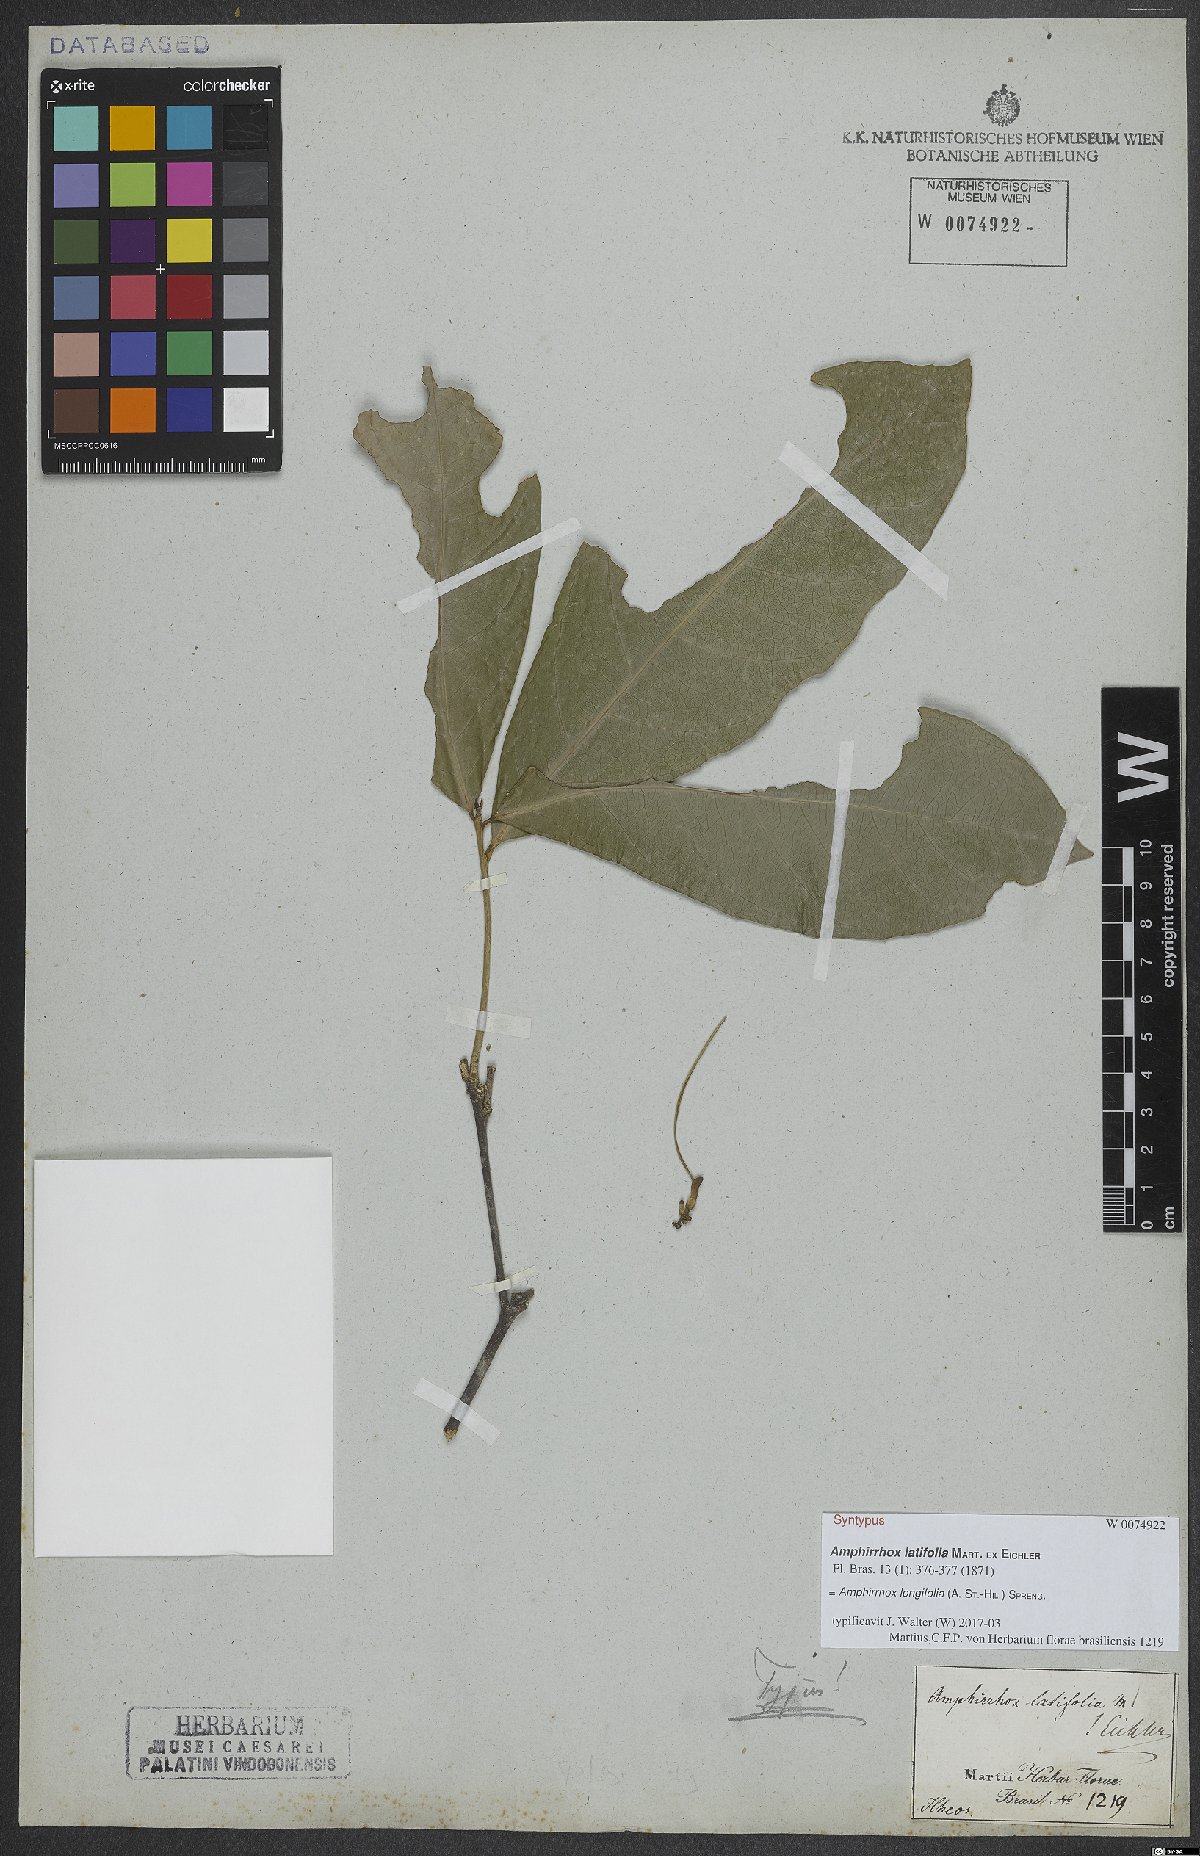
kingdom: Plantae
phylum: Tracheophyta
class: Magnoliopsida
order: Malpighiales
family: Violaceae
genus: Amphirrhox
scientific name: Amphirrhox longifolia
